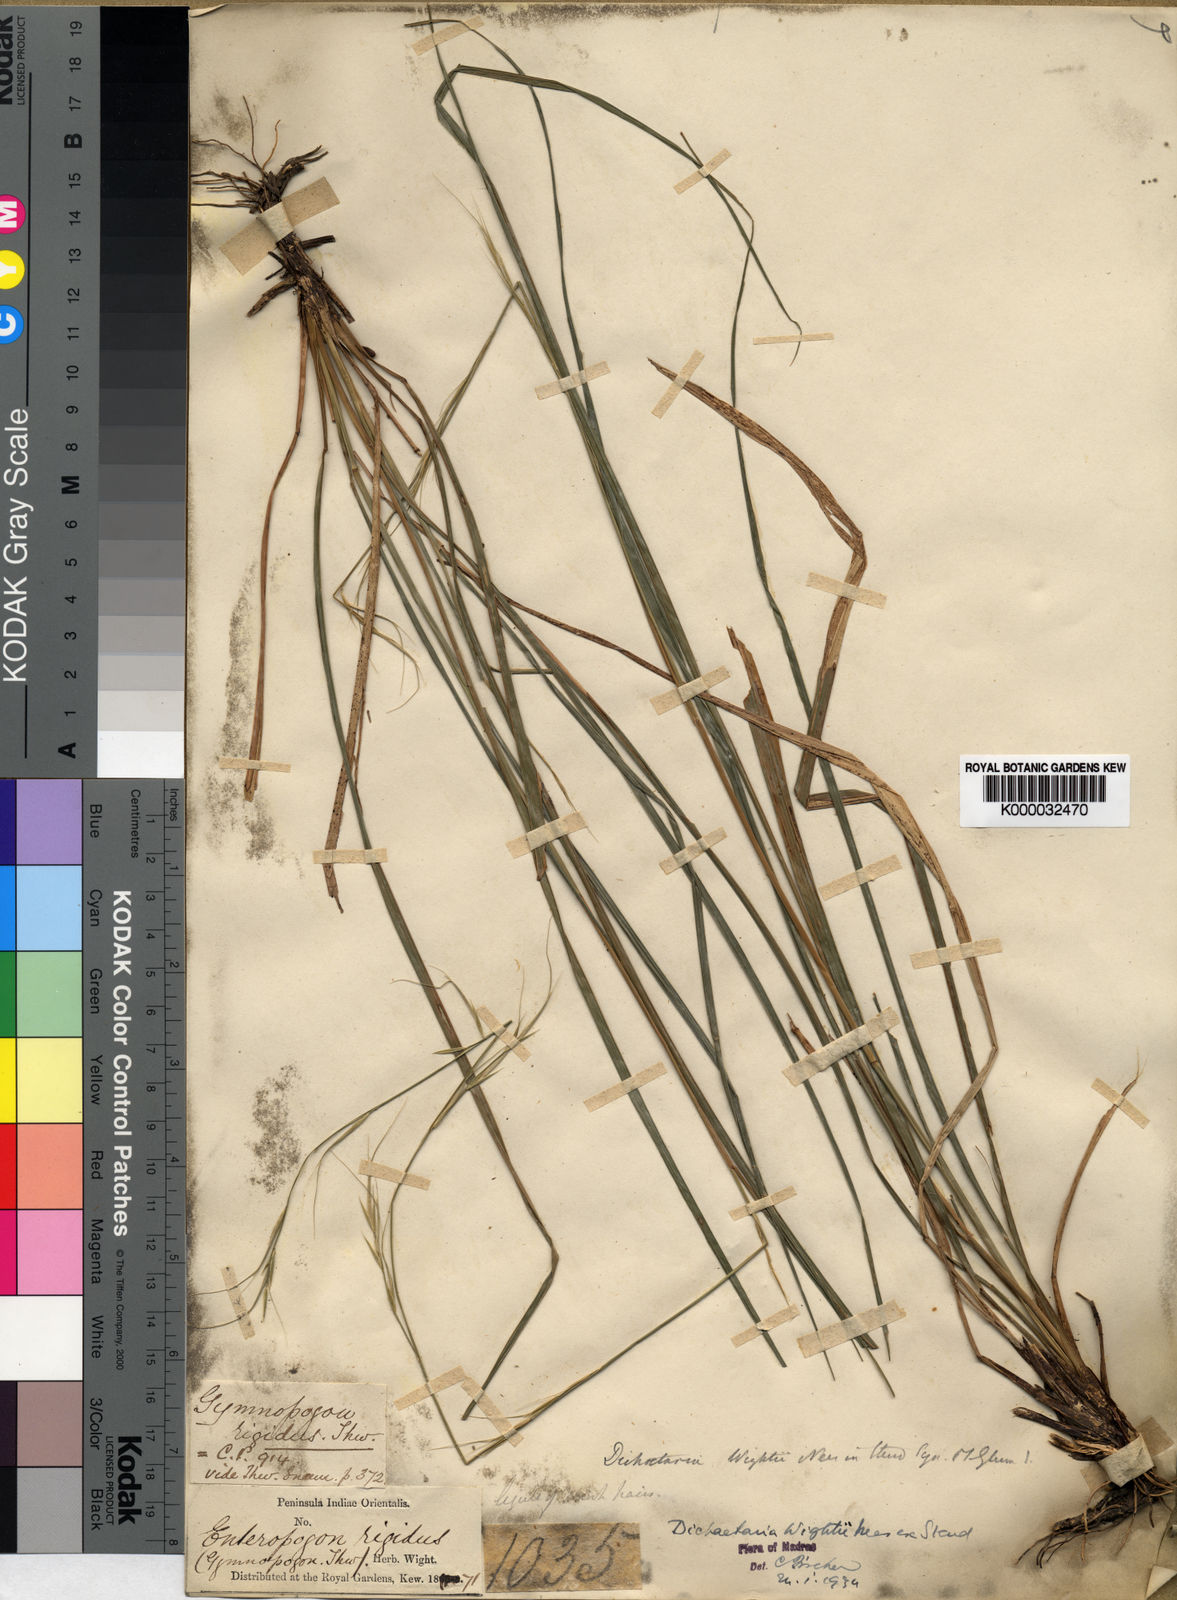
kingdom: Plantae
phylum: Tracheophyta
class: Liliopsida
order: Poales
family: Poaceae
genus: Dichaetaria
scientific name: Dichaetaria wightii
